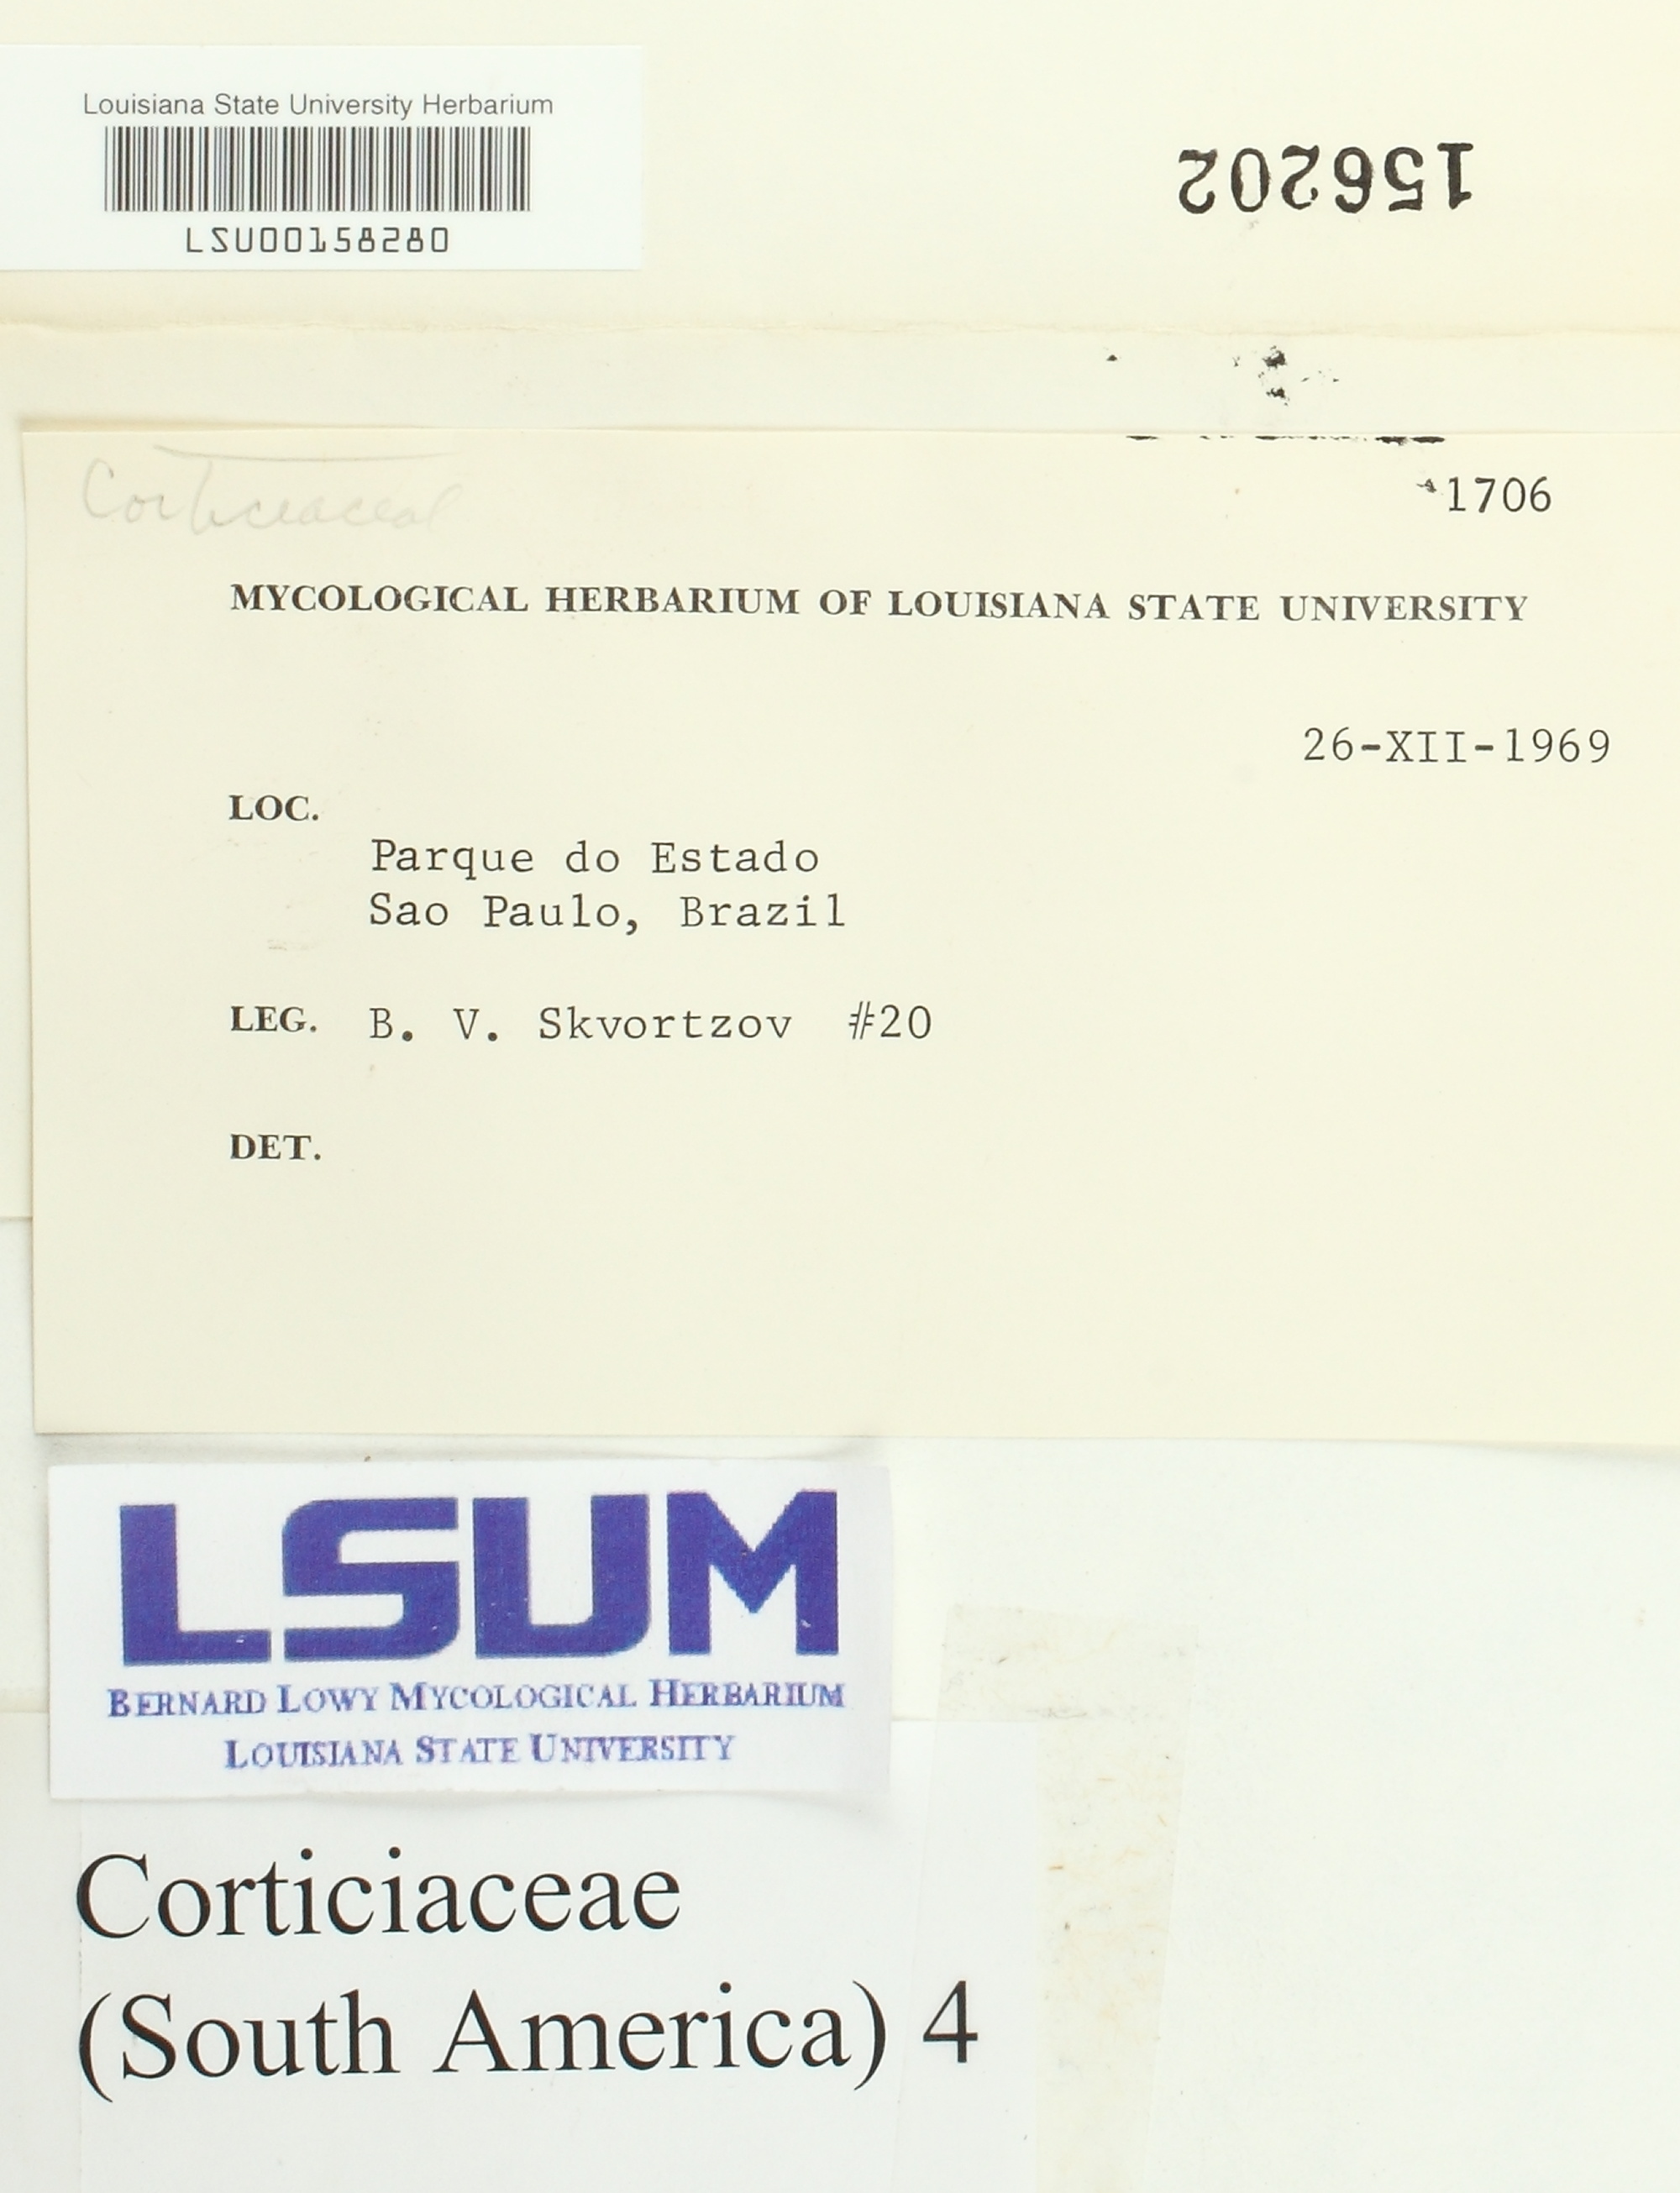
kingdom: Fungi
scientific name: Fungi
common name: Fungi
